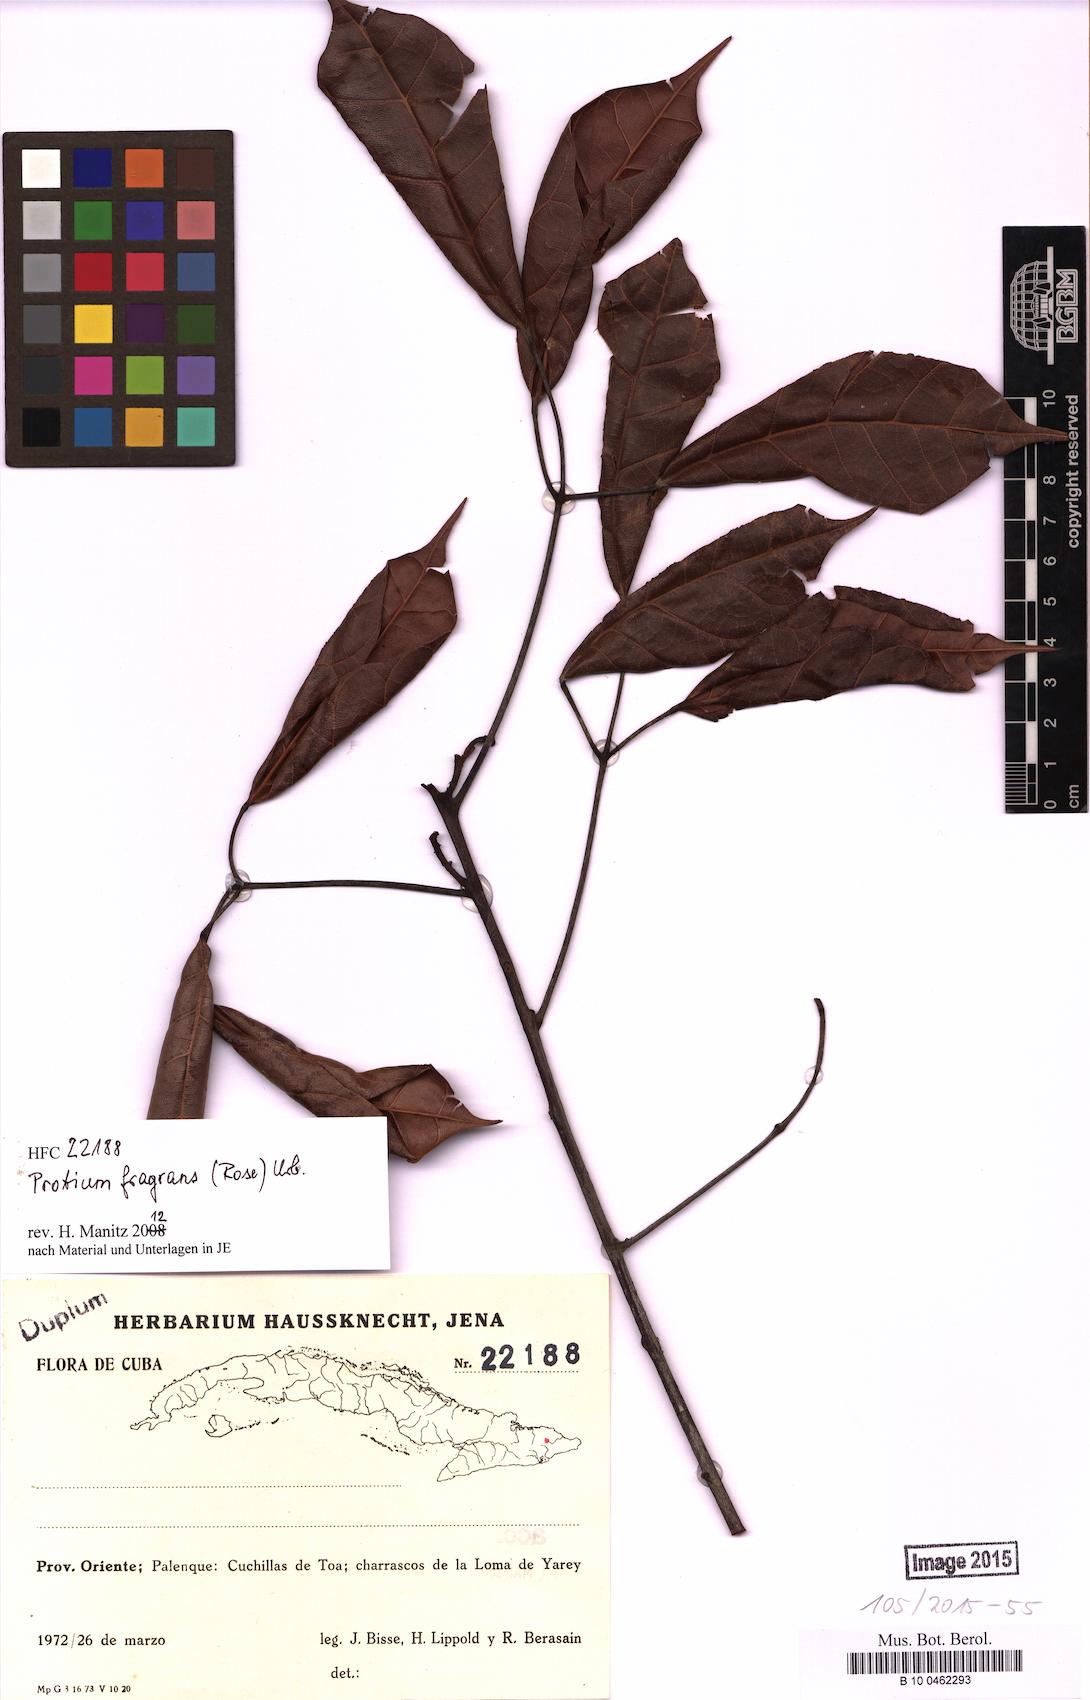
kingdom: Plantae
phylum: Tracheophyta
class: Magnoliopsida
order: Sapindales
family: Burseraceae
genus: Protium
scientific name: Protium fragrans
